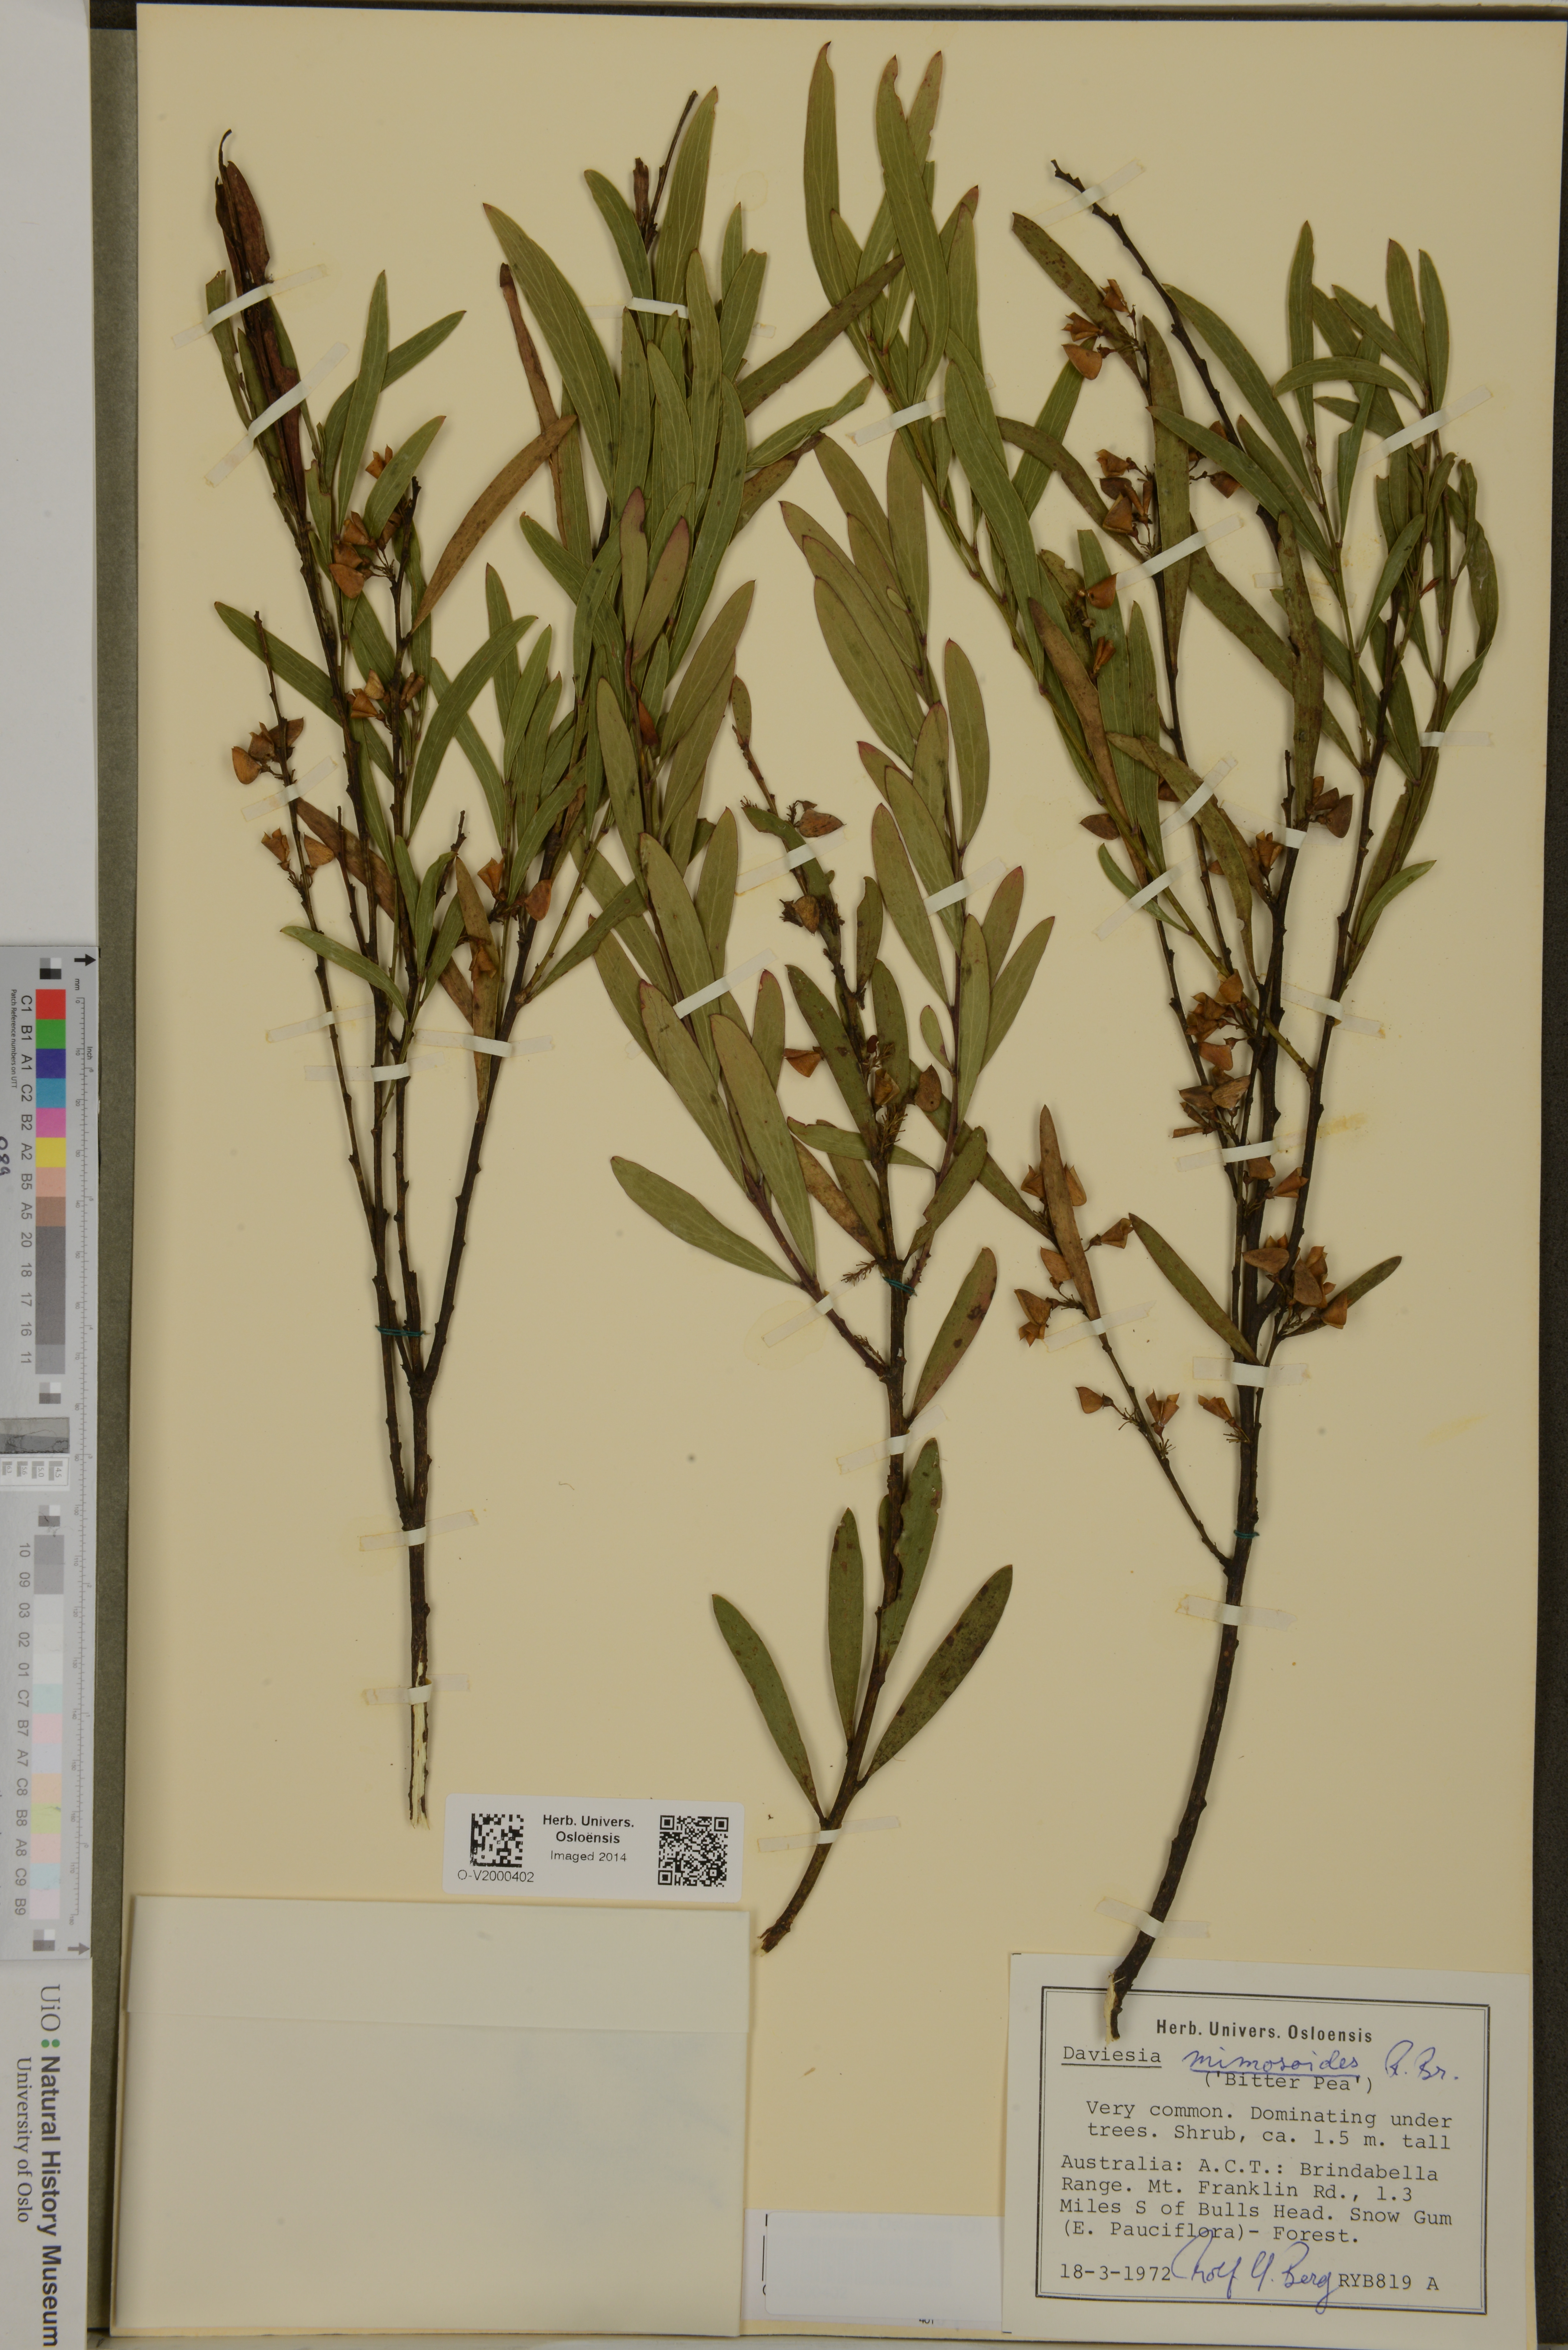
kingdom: Plantae
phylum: Tracheophyta
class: Magnoliopsida
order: Fabales
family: Fabaceae
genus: Daviesia
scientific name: Daviesia mimosoides
